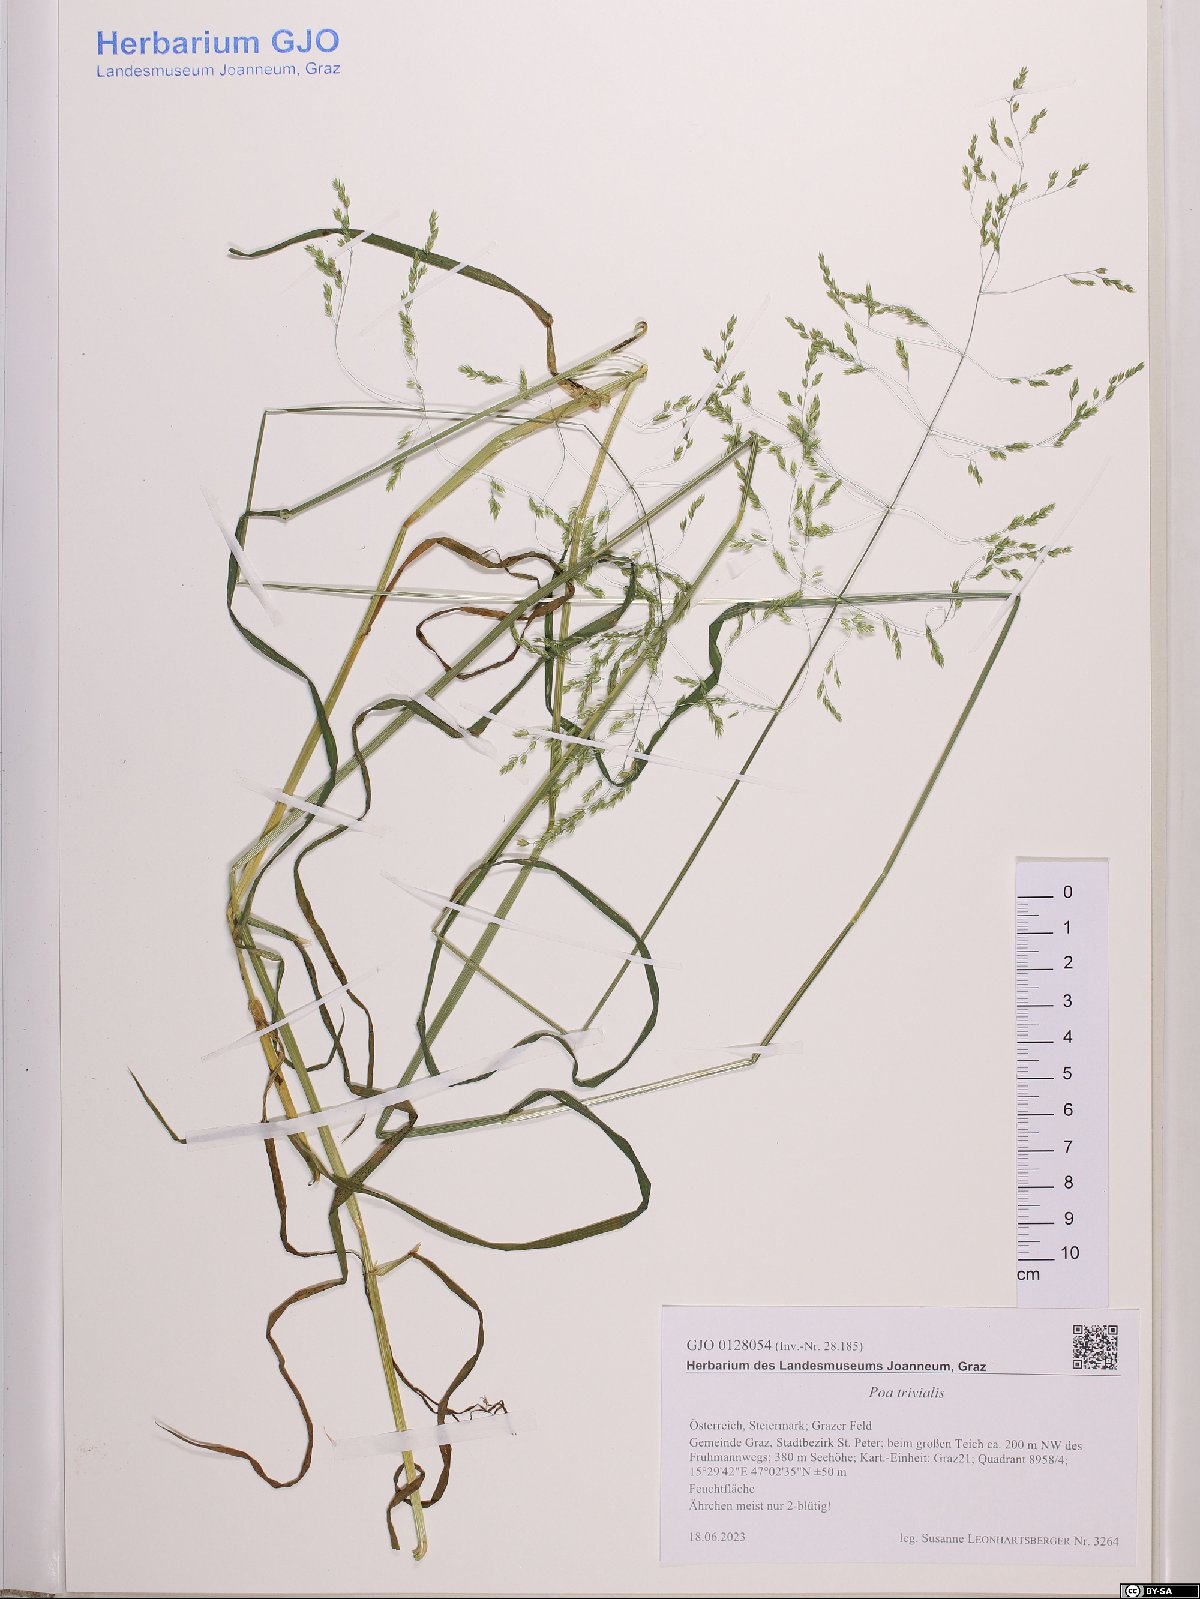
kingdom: Plantae
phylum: Tracheophyta
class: Liliopsida
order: Poales
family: Poaceae
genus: Poa
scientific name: Poa trivialis
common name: Rough bluegrass
